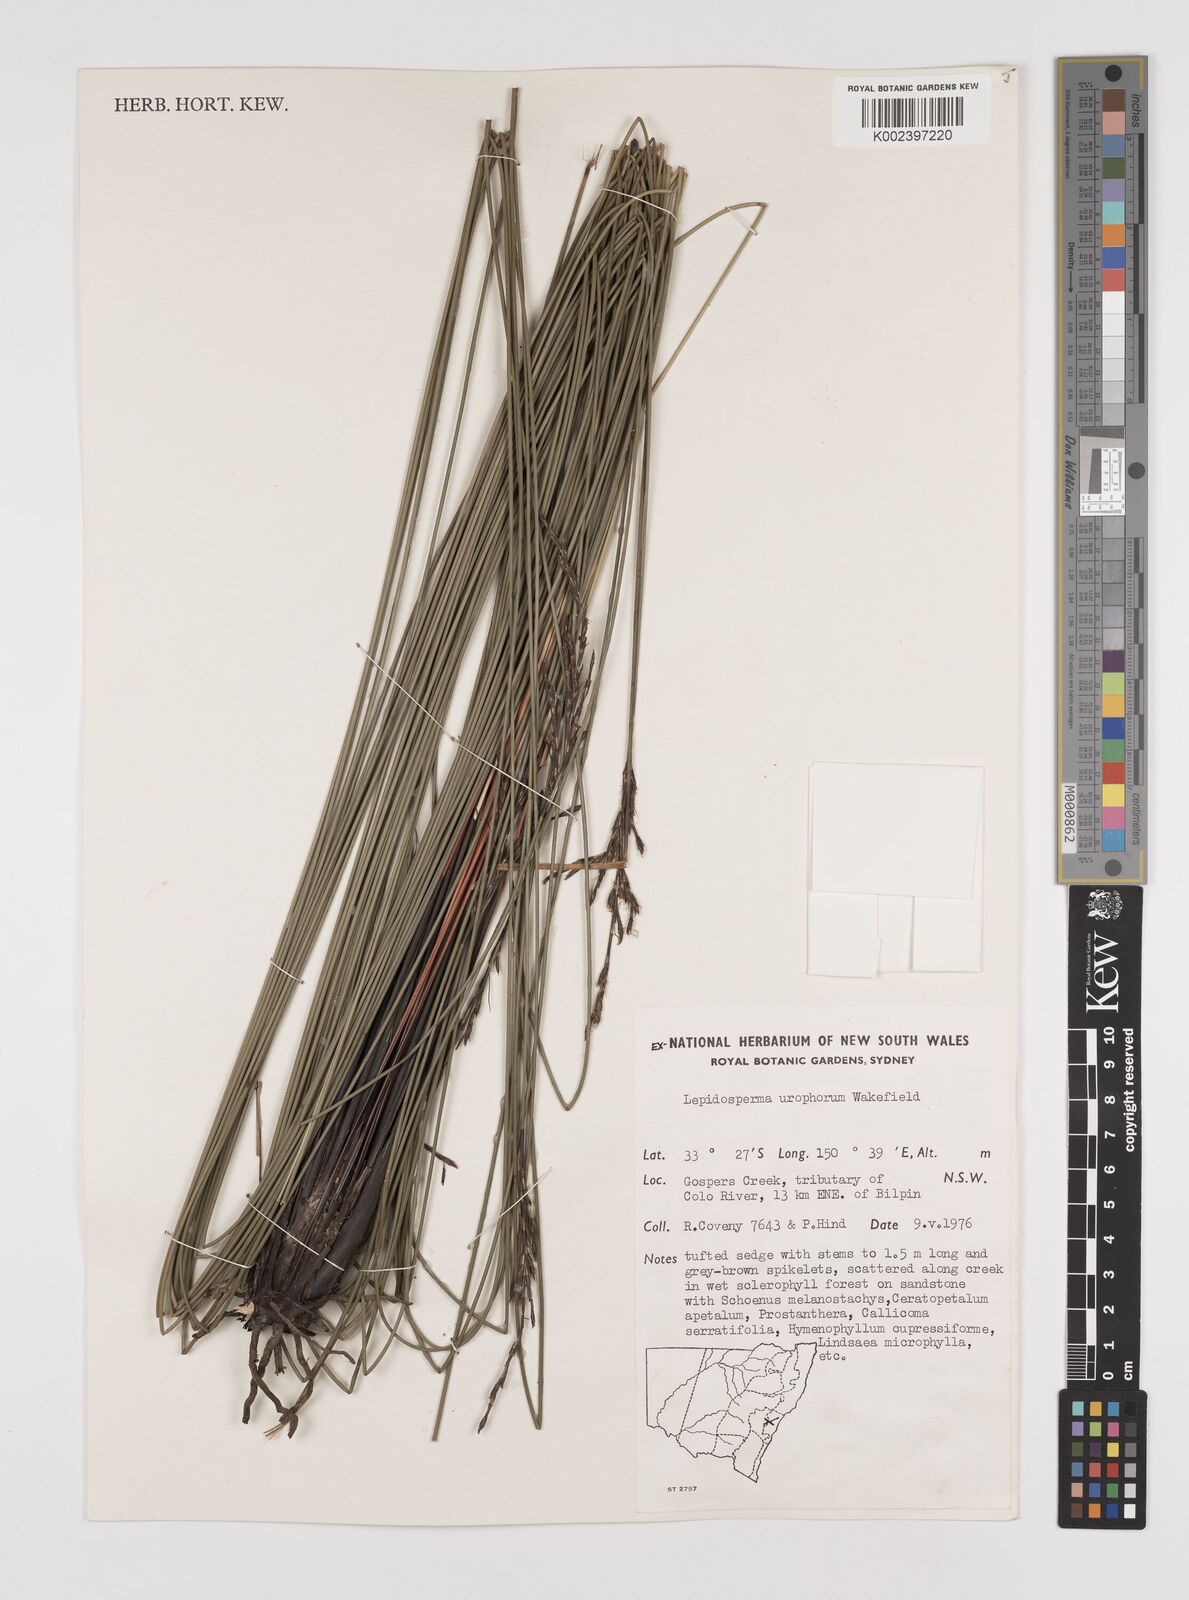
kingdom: Plantae
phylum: Tracheophyta
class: Liliopsida
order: Poales
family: Cyperaceae
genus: Lepidosperma
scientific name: Lepidosperma urophorum
